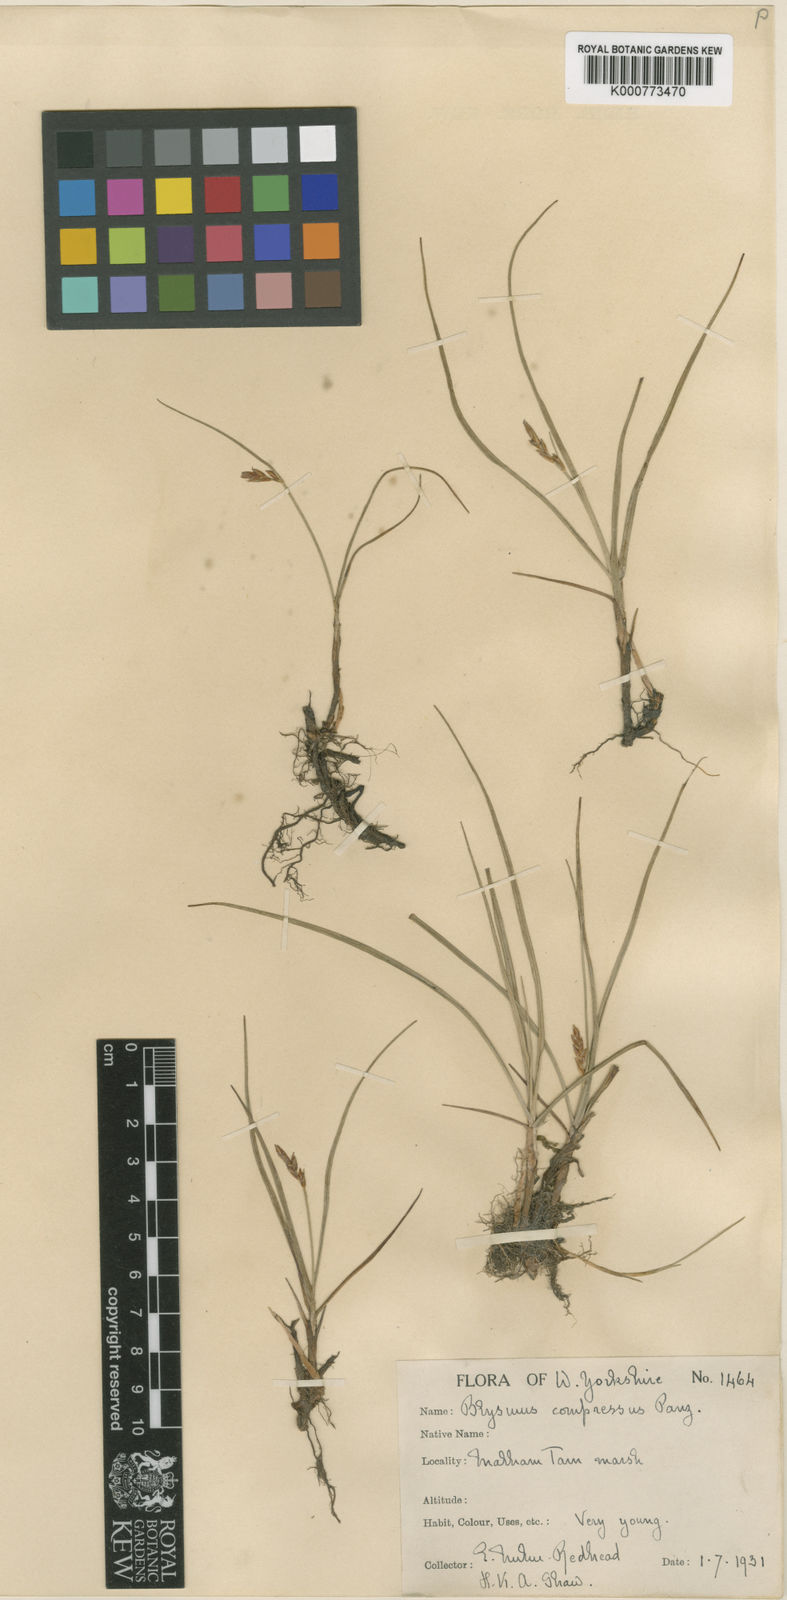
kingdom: Plantae
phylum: Tracheophyta
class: Liliopsida
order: Poales
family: Cyperaceae
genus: Blysmus
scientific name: Blysmus compressus
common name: Flat-sedge
